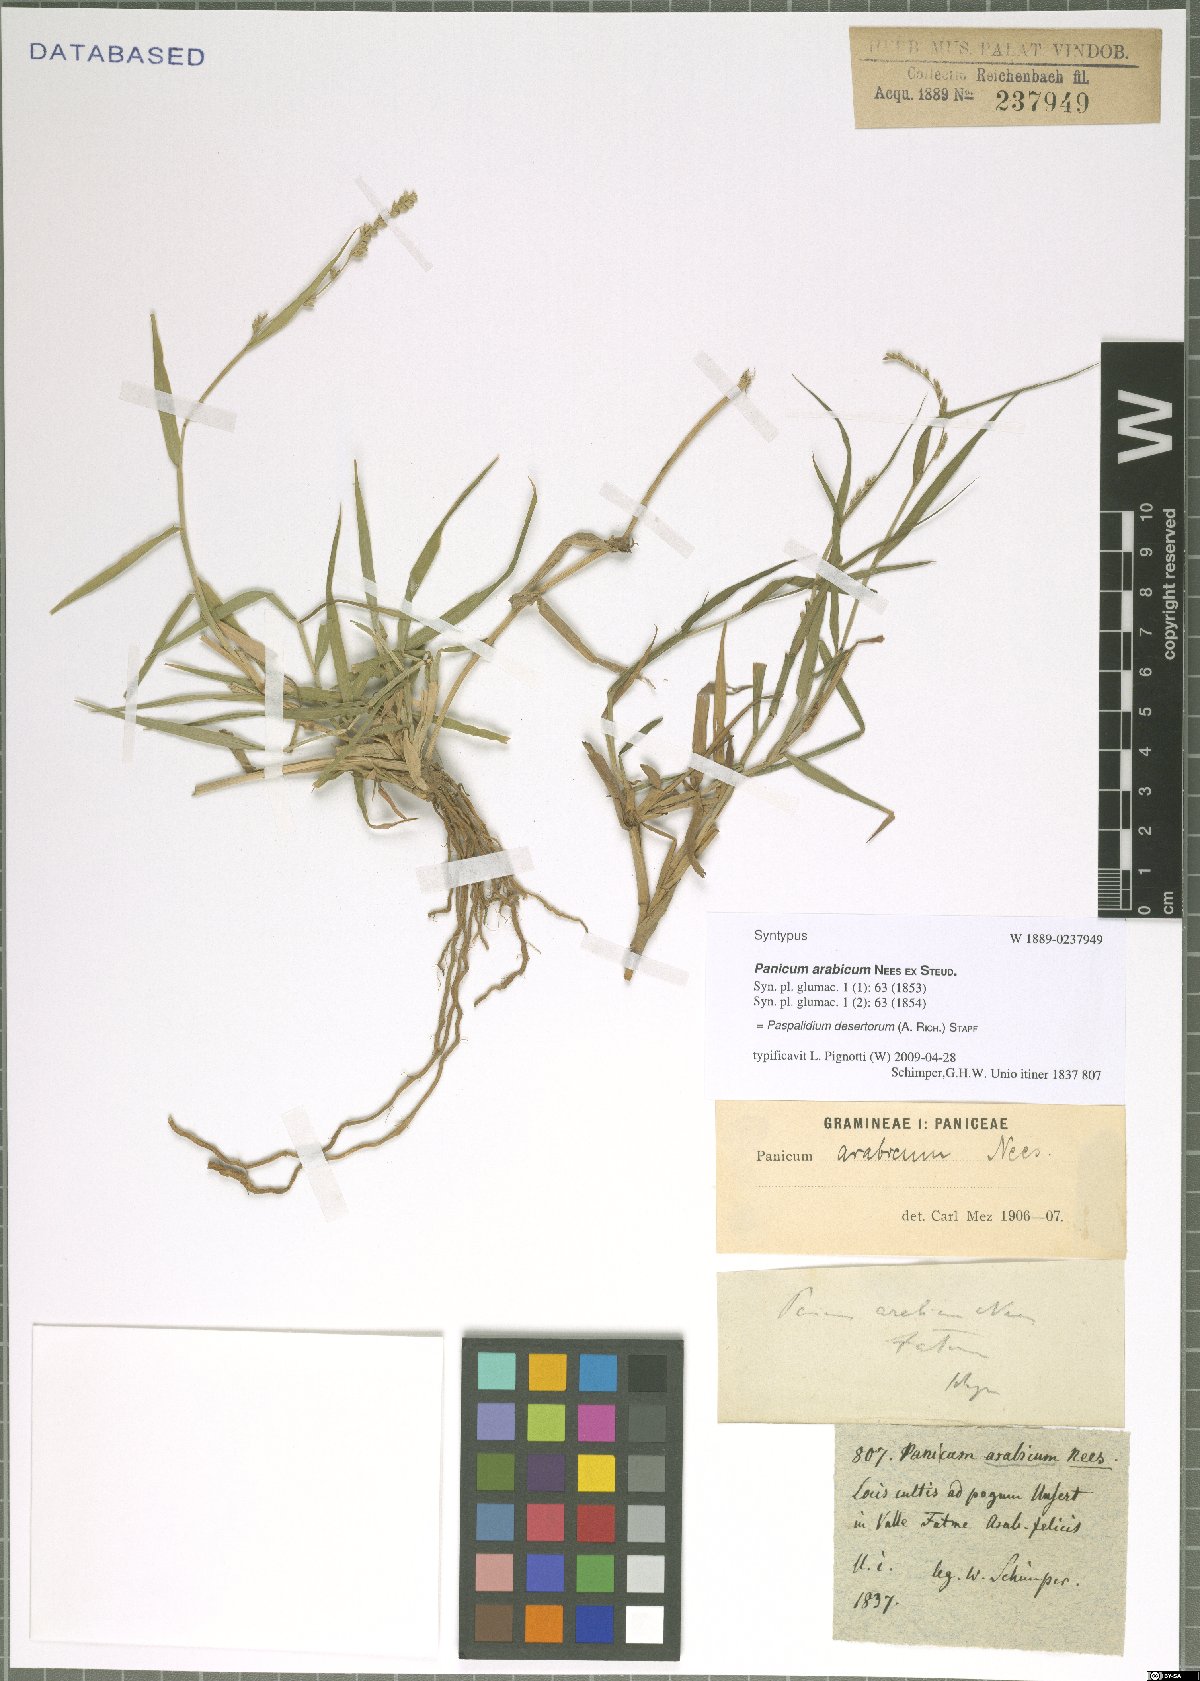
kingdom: Plantae
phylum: Tracheophyta
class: Liliopsida
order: Poales
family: Poaceae
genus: Setaria
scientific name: Setaria desertorum
